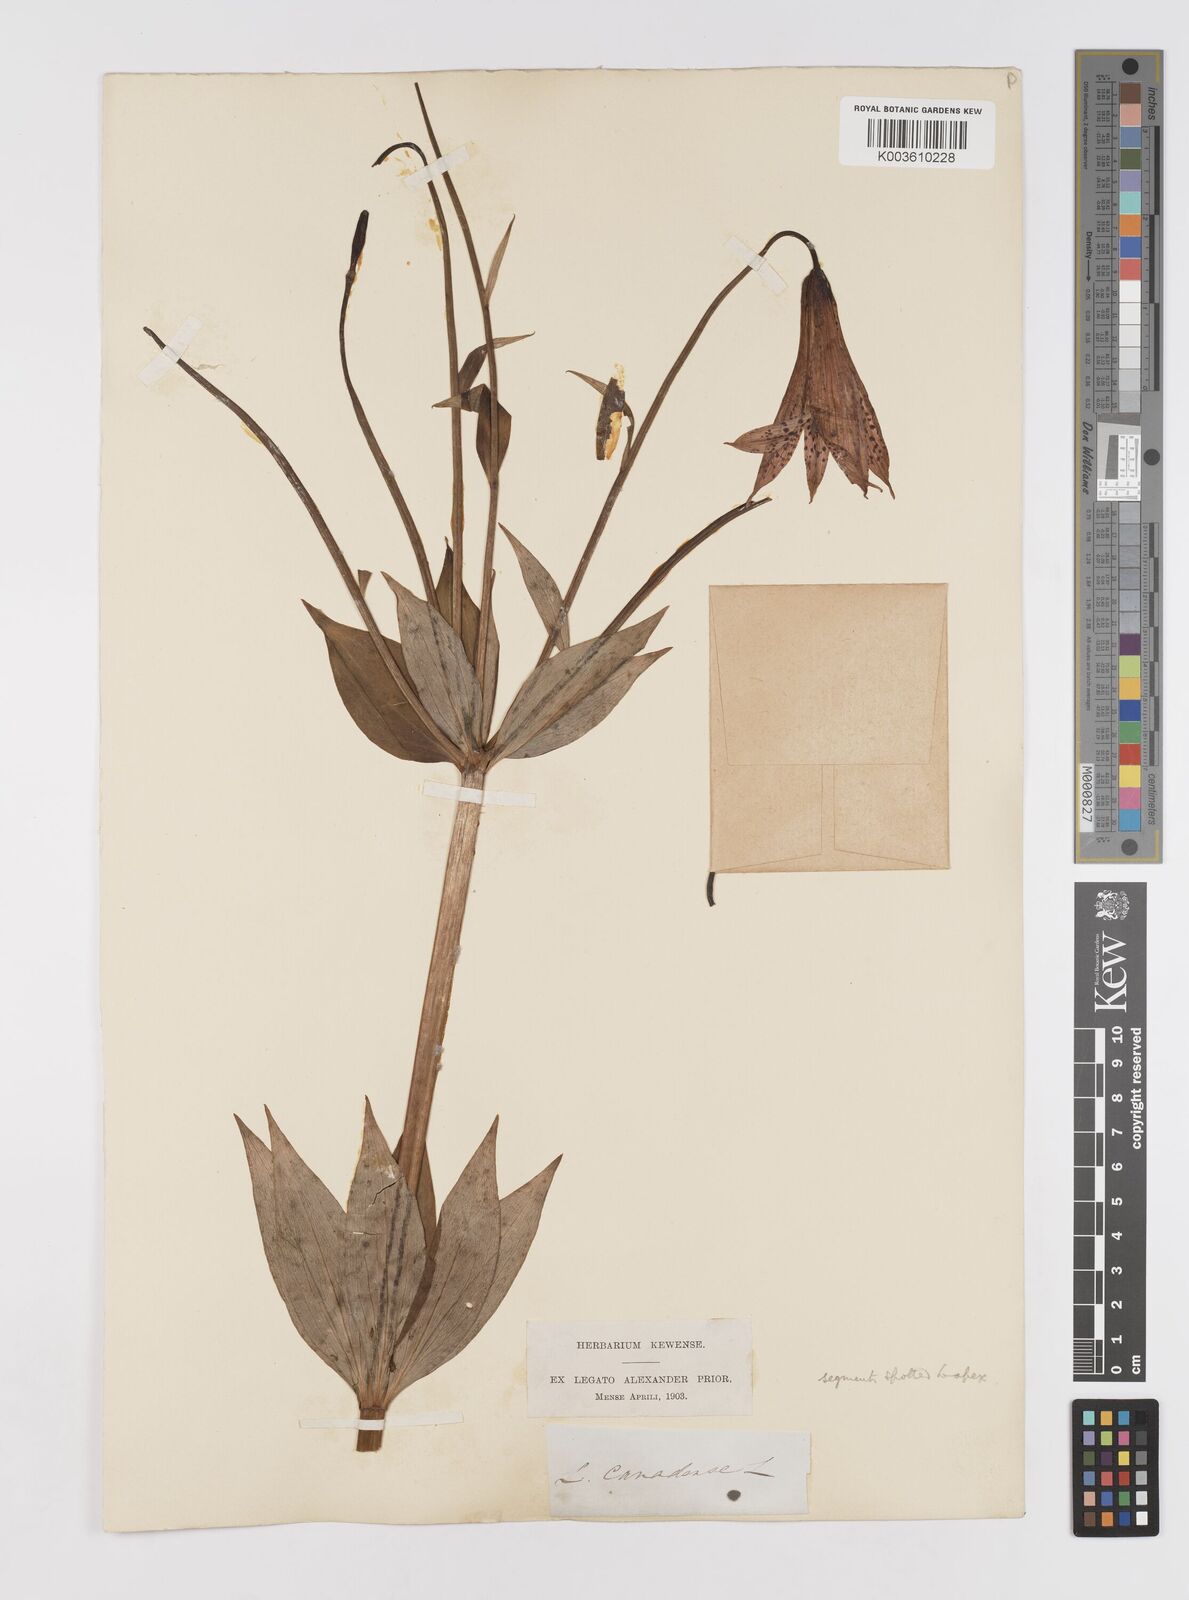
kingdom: Plantae
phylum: Tracheophyta
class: Liliopsida
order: Liliales
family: Liliaceae
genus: Lilium
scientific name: Lilium canadense
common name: Canada lily
